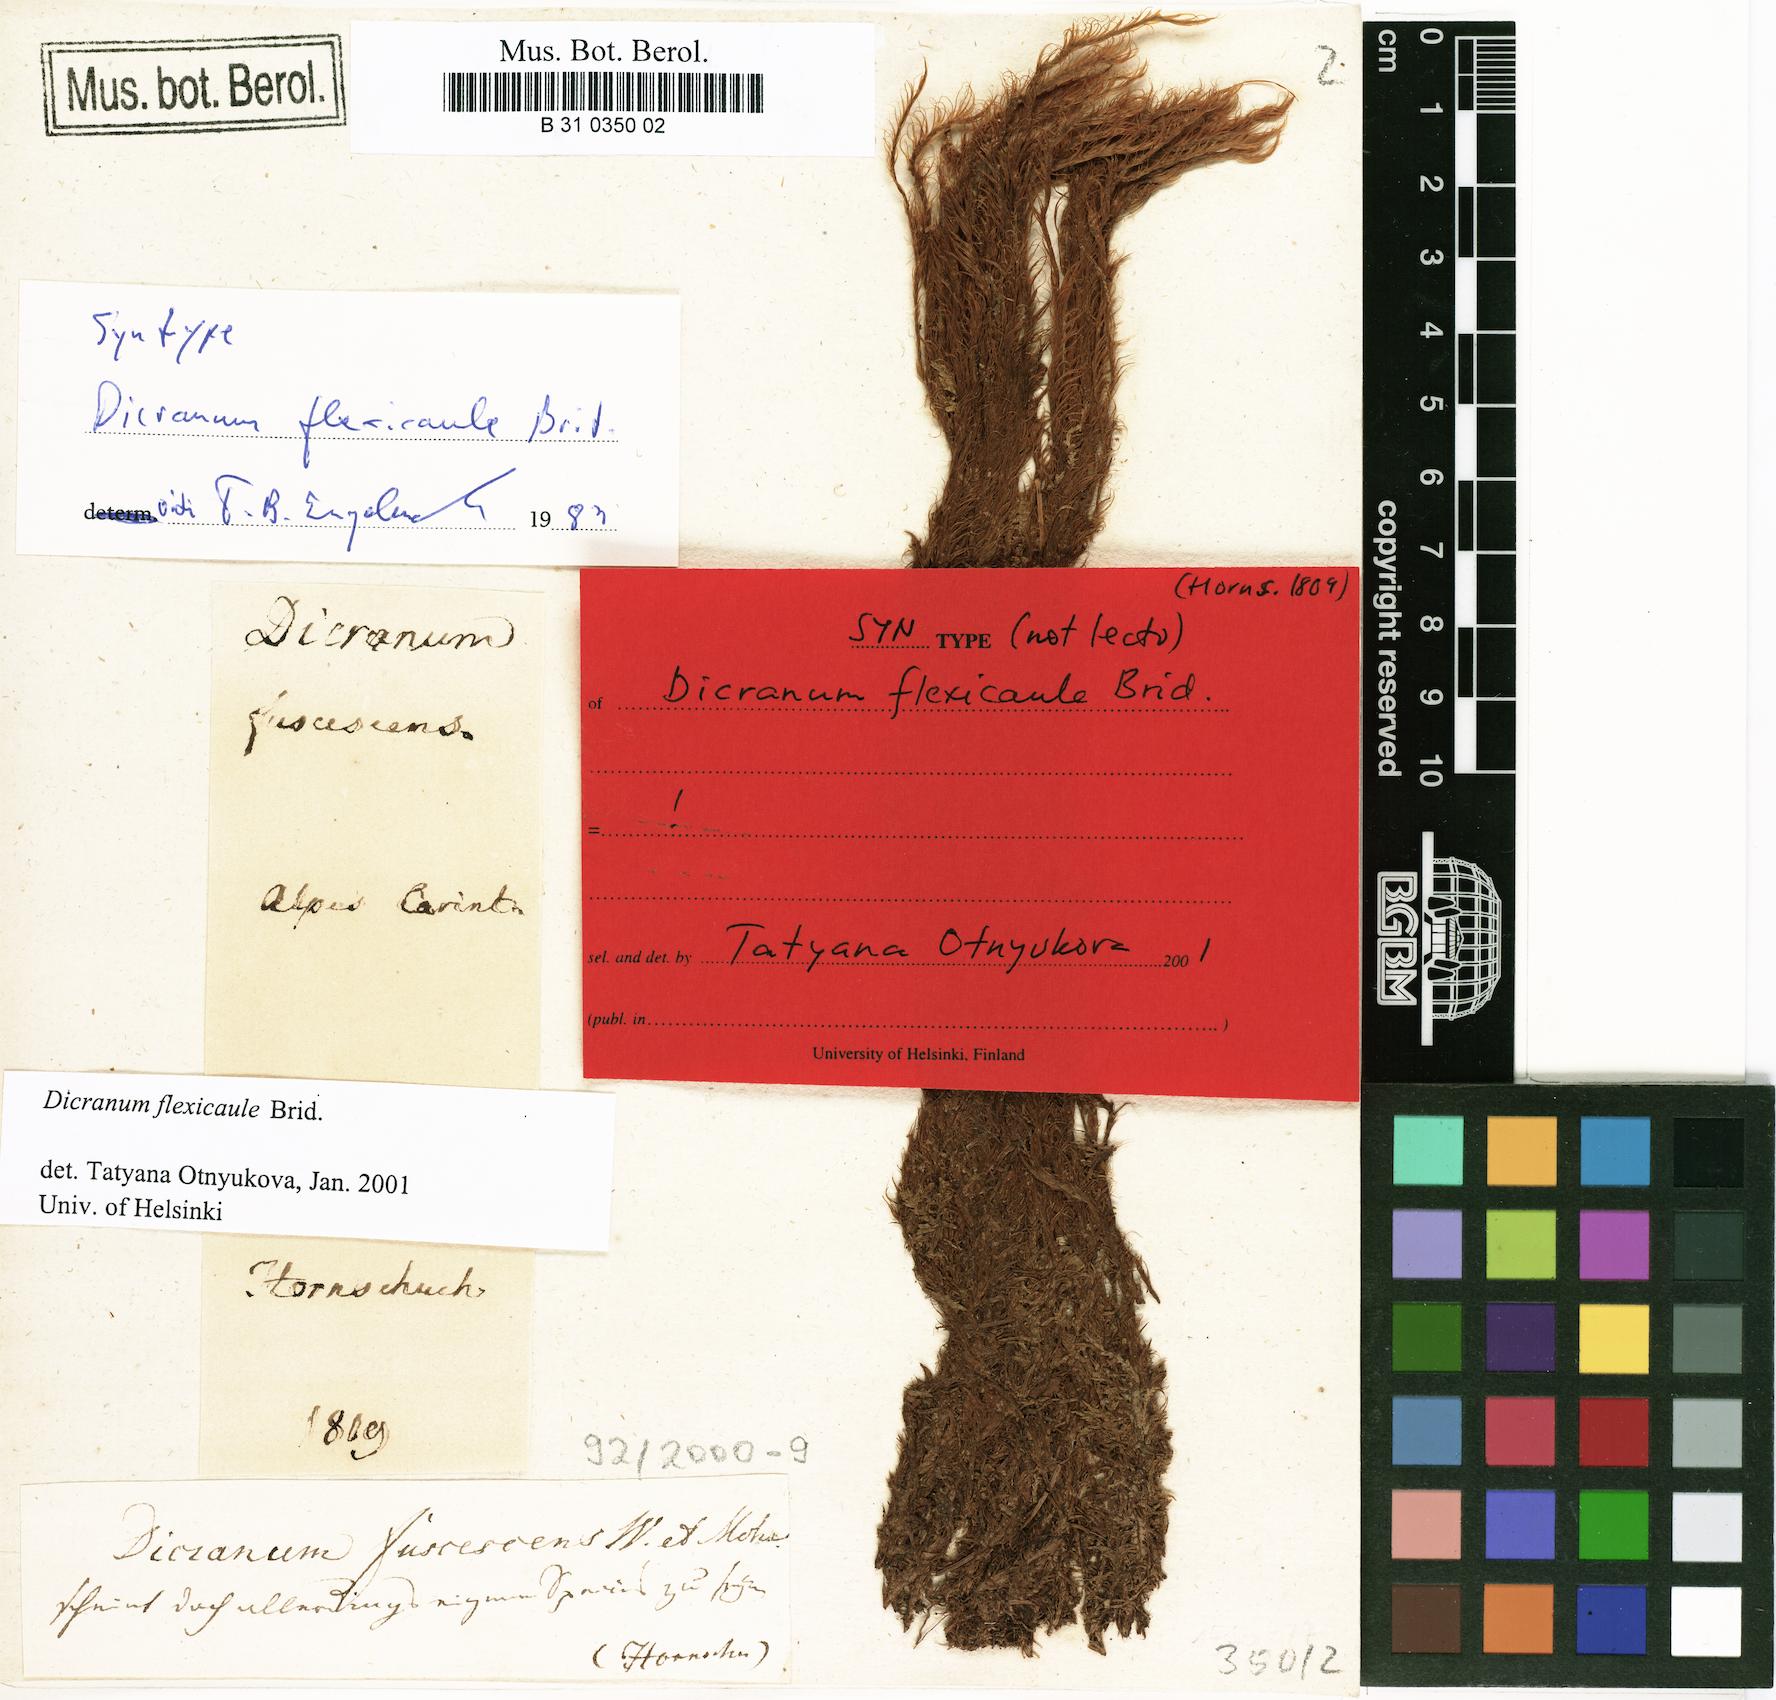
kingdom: Plantae
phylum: Bryophyta
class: Bryopsida
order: Dicranales
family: Dicranaceae
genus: Dicranum
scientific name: Dicranum flexicaule
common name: Bendy heron s-bill moss
